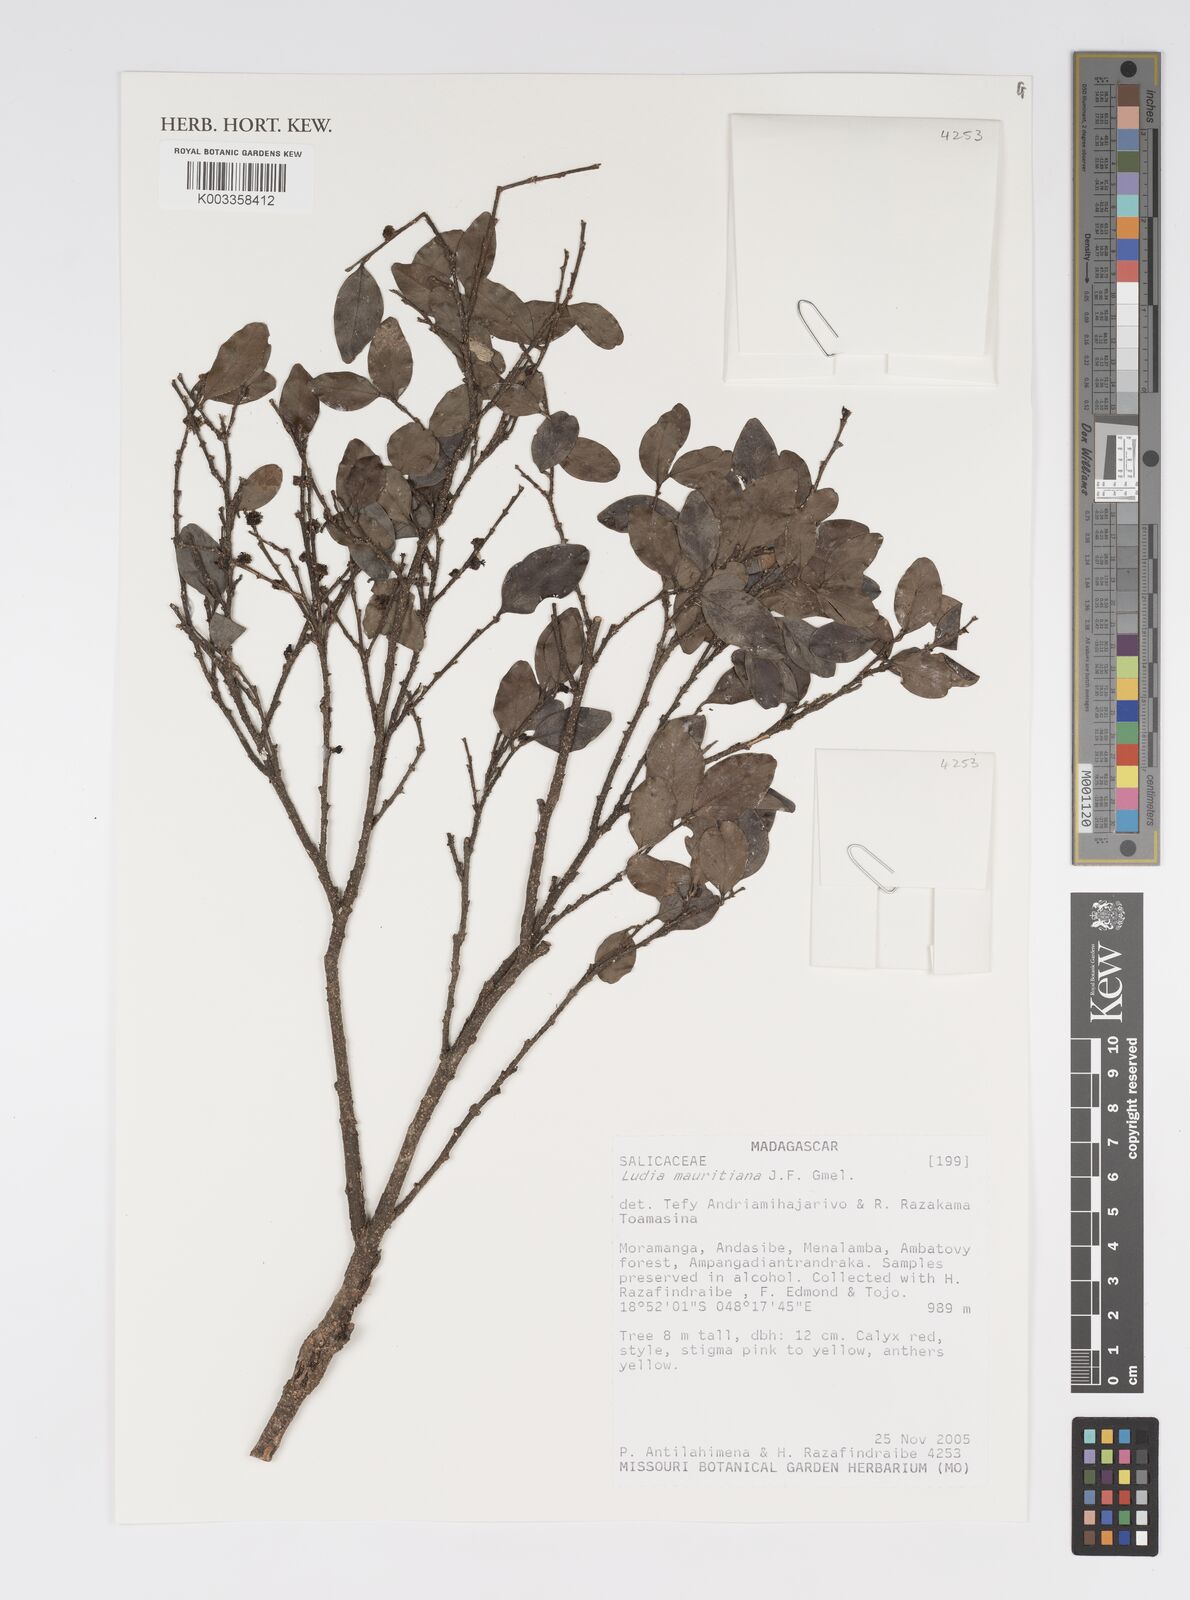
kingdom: Plantae
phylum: Tracheophyta
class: Magnoliopsida
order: Malpighiales
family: Salicaceae
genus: Ludia
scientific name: Ludia mauritiana
